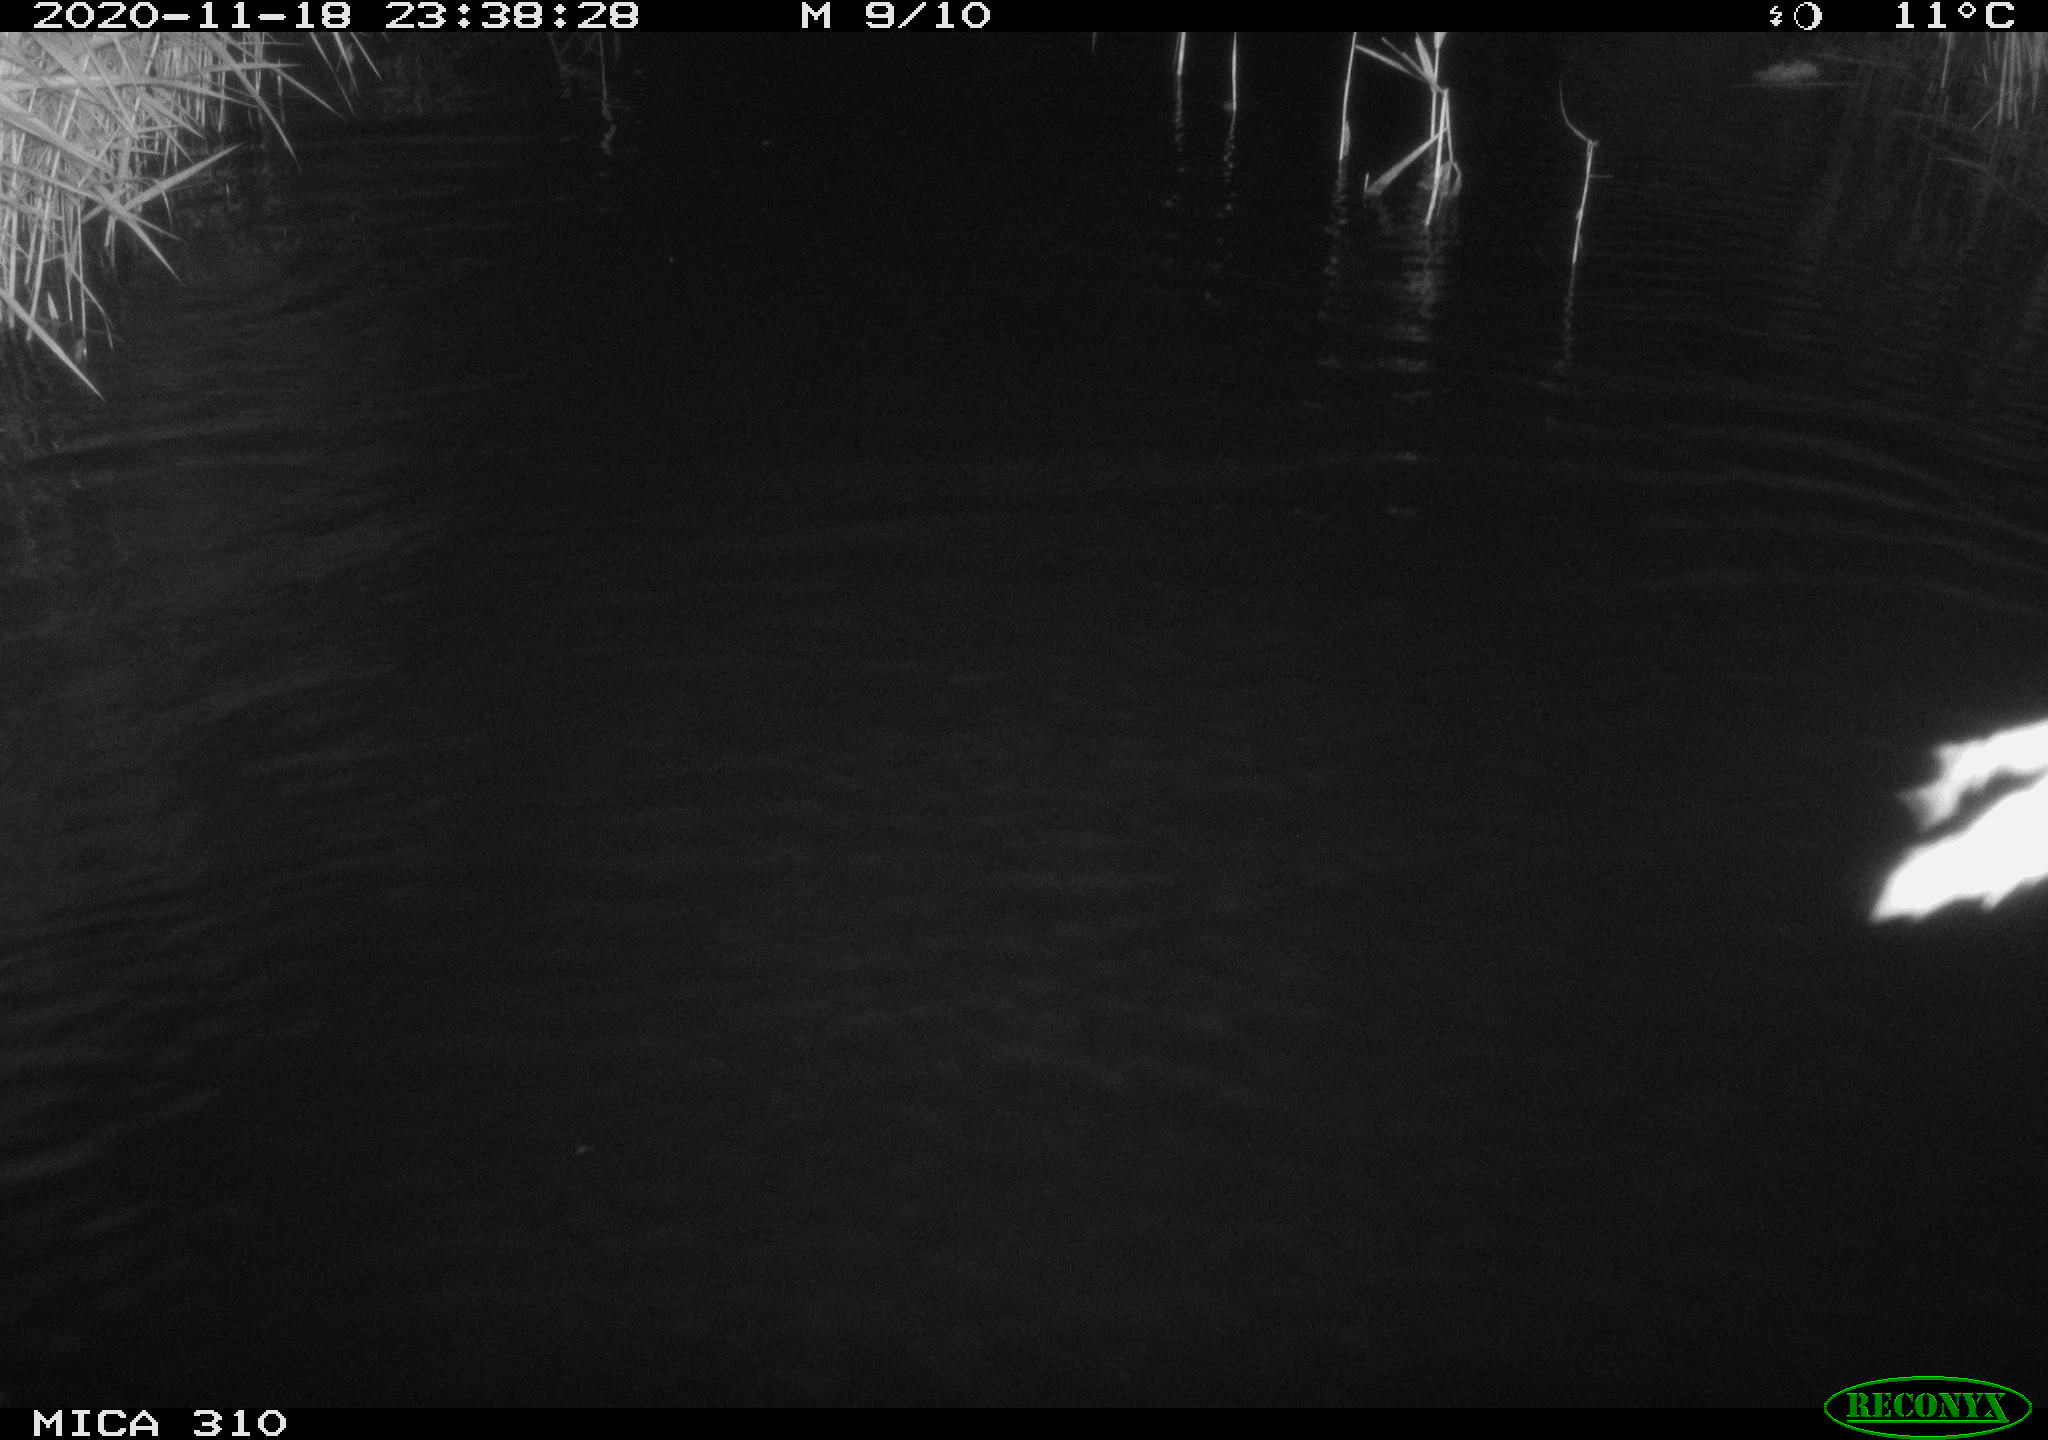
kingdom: Animalia
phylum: Chordata
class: Mammalia
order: Rodentia
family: Cricetidae
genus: Ondatra
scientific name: Ondatra zibethicus
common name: Muskrat
